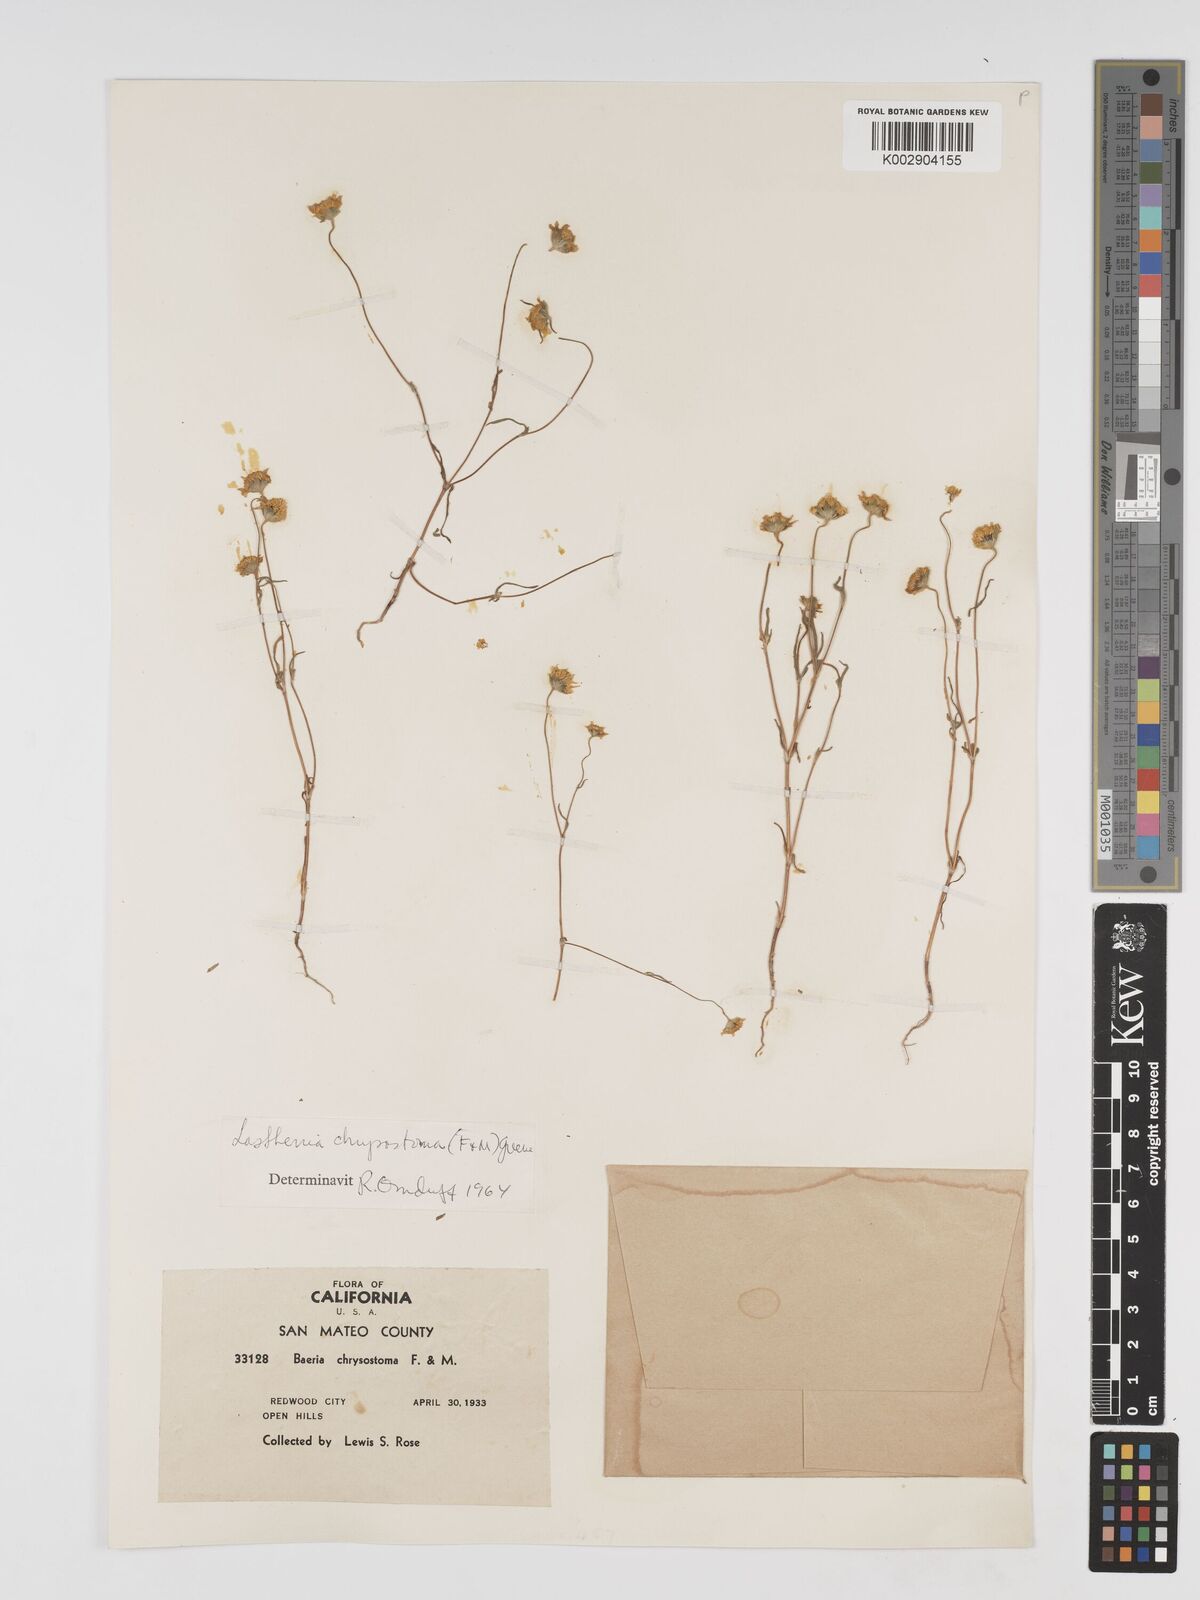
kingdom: Plantae
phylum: Tracheophyta
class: Magnoliopsida
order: Asterales
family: Asteraceae
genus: Lasthenia
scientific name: Lasthenia californica
